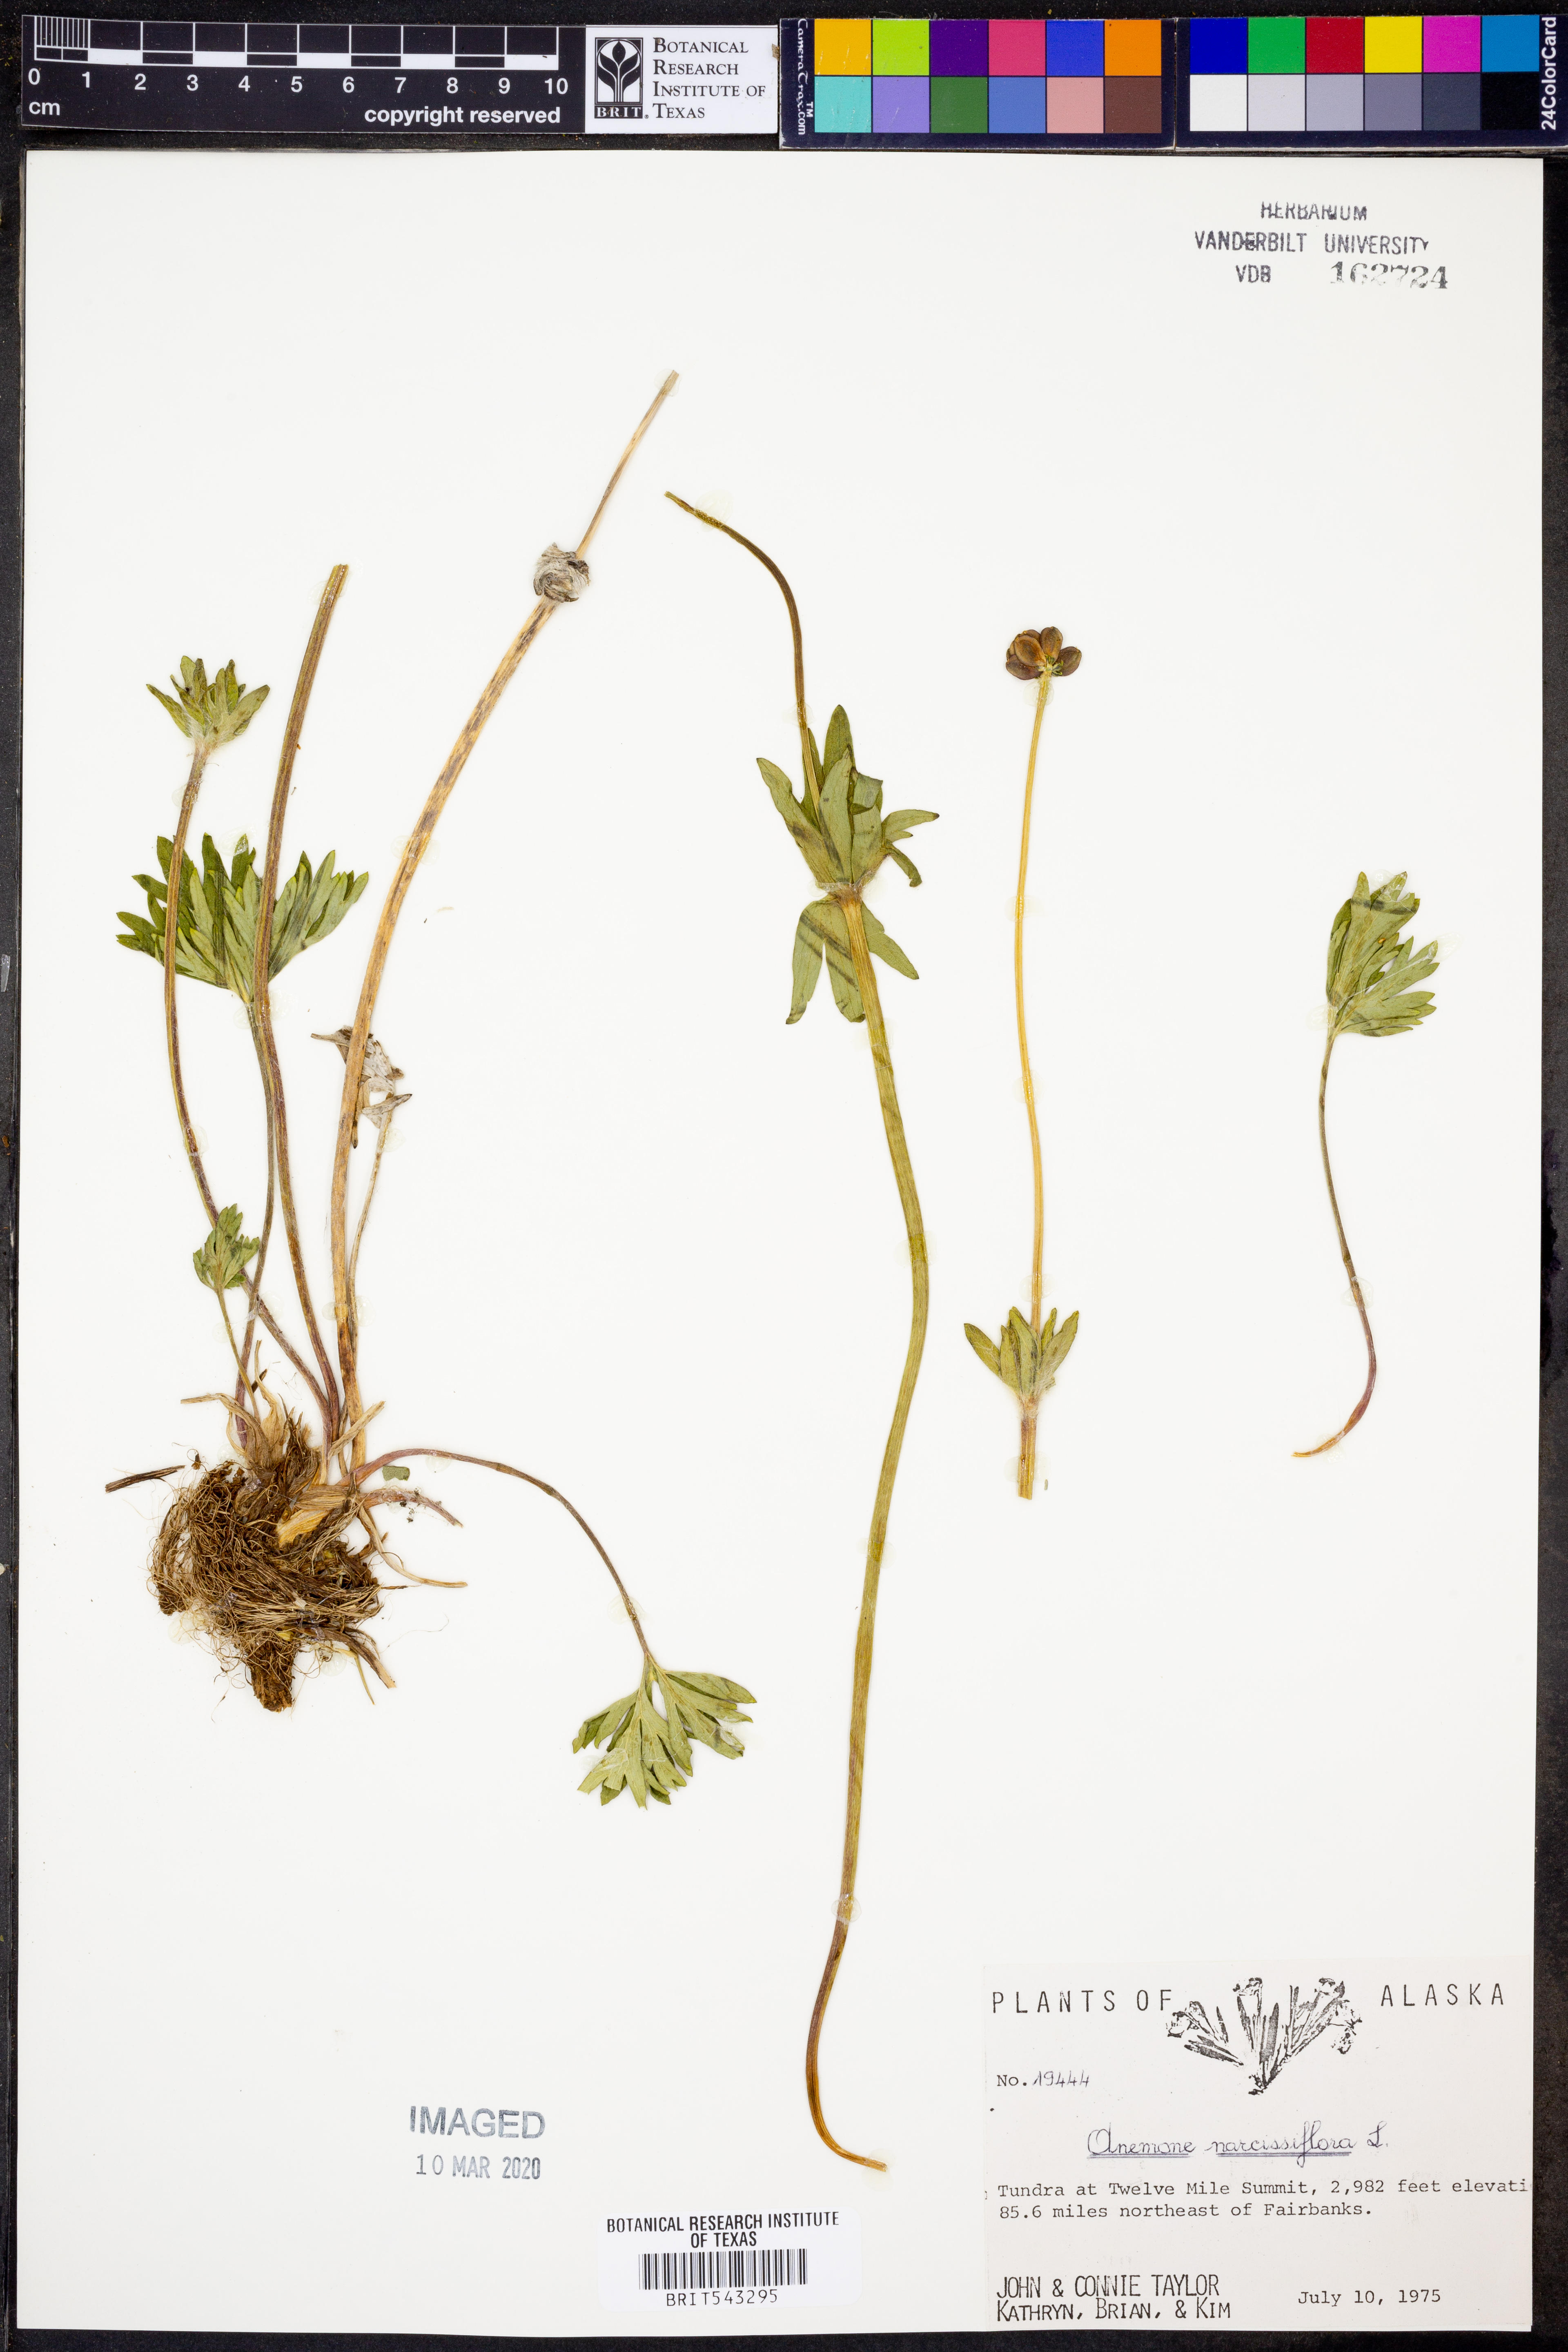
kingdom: Plantae
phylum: Tracheophyta
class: Magnoliopsida
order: Ranunculales
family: Ranunculaceae
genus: Anemonastrum
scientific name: Anemonastrum narcissiflorum
